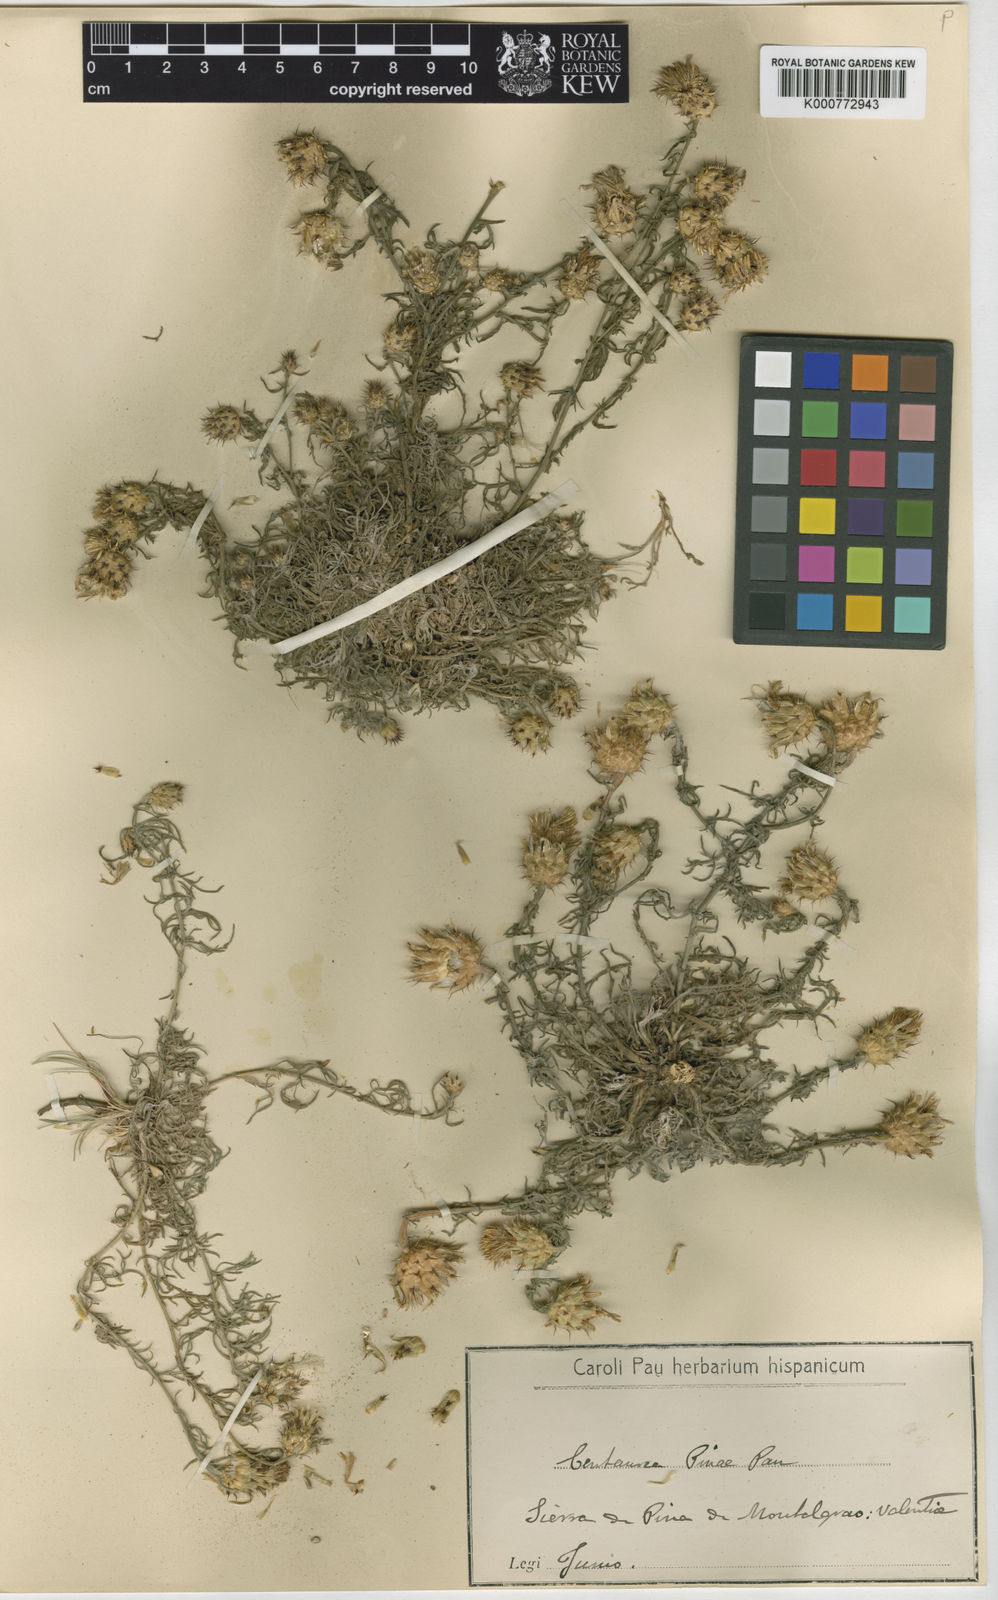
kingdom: Plantae
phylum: Tracheophyta
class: Magnoliopsida
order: Asterales
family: Asteraceae
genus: Centaurea
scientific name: Centaurea boissieri
